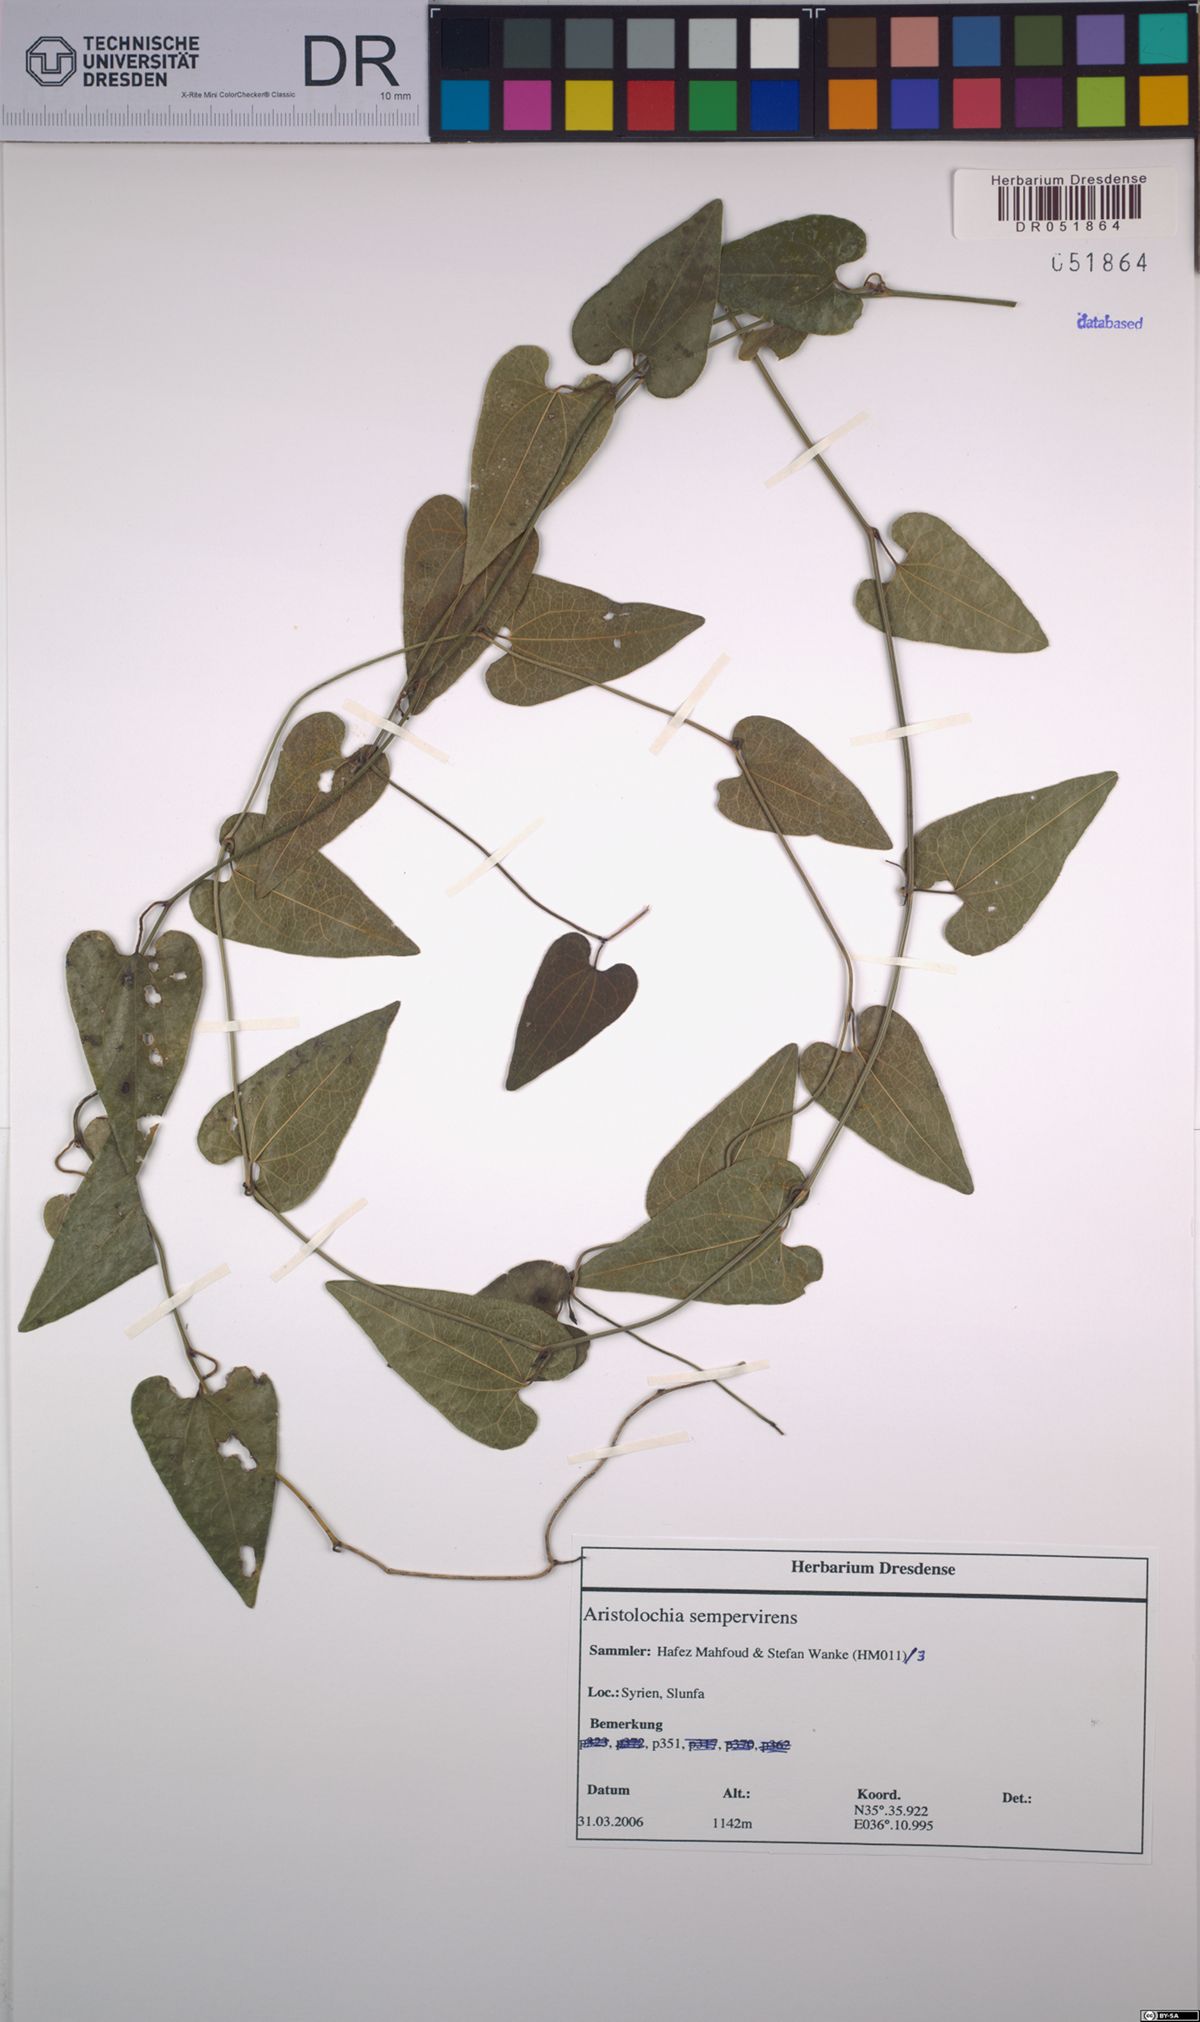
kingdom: Plantae
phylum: Tracheophyta
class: Magnoliopsida
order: Piperales
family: Aristolochiaceae
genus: Aristolochia
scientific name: Aristolochia sempervirens
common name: Long birthwort
